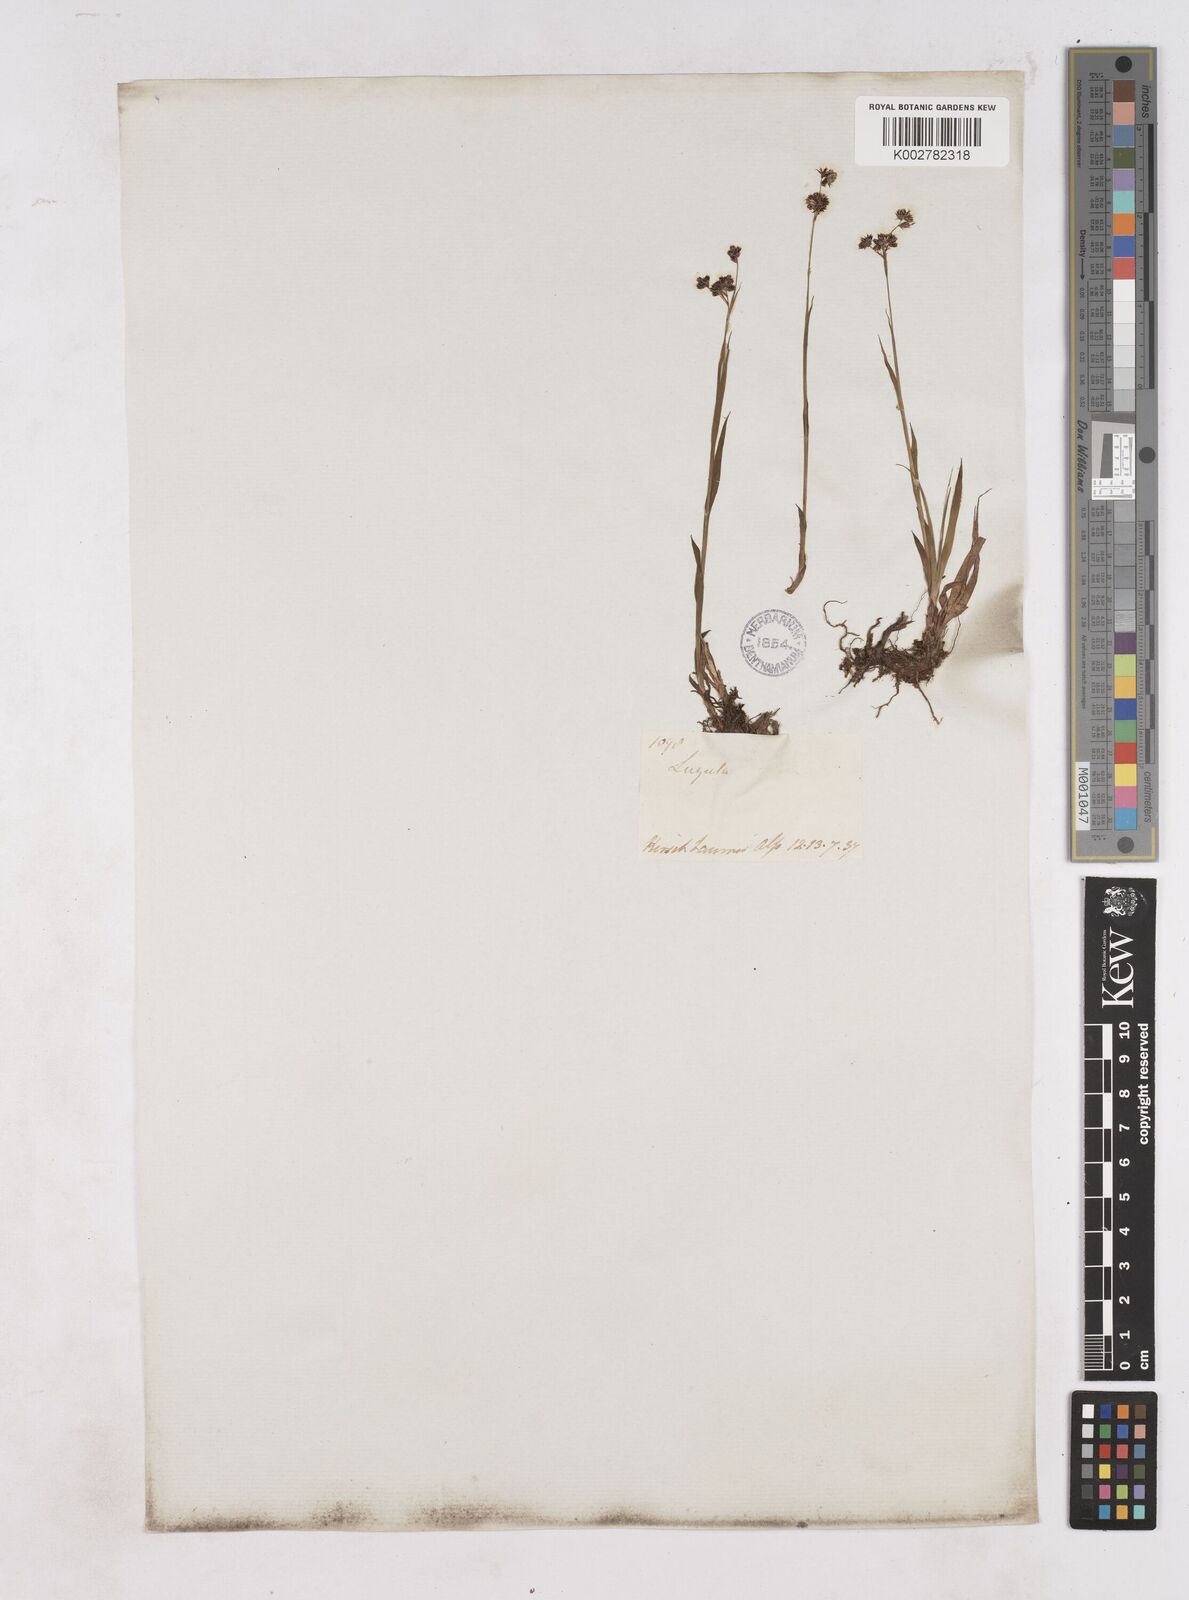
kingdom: Plantae
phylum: Tracheophyta
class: Liliopsida
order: Poales
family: Juncaceae
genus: Luzula
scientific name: Luzula alpinopilosa
